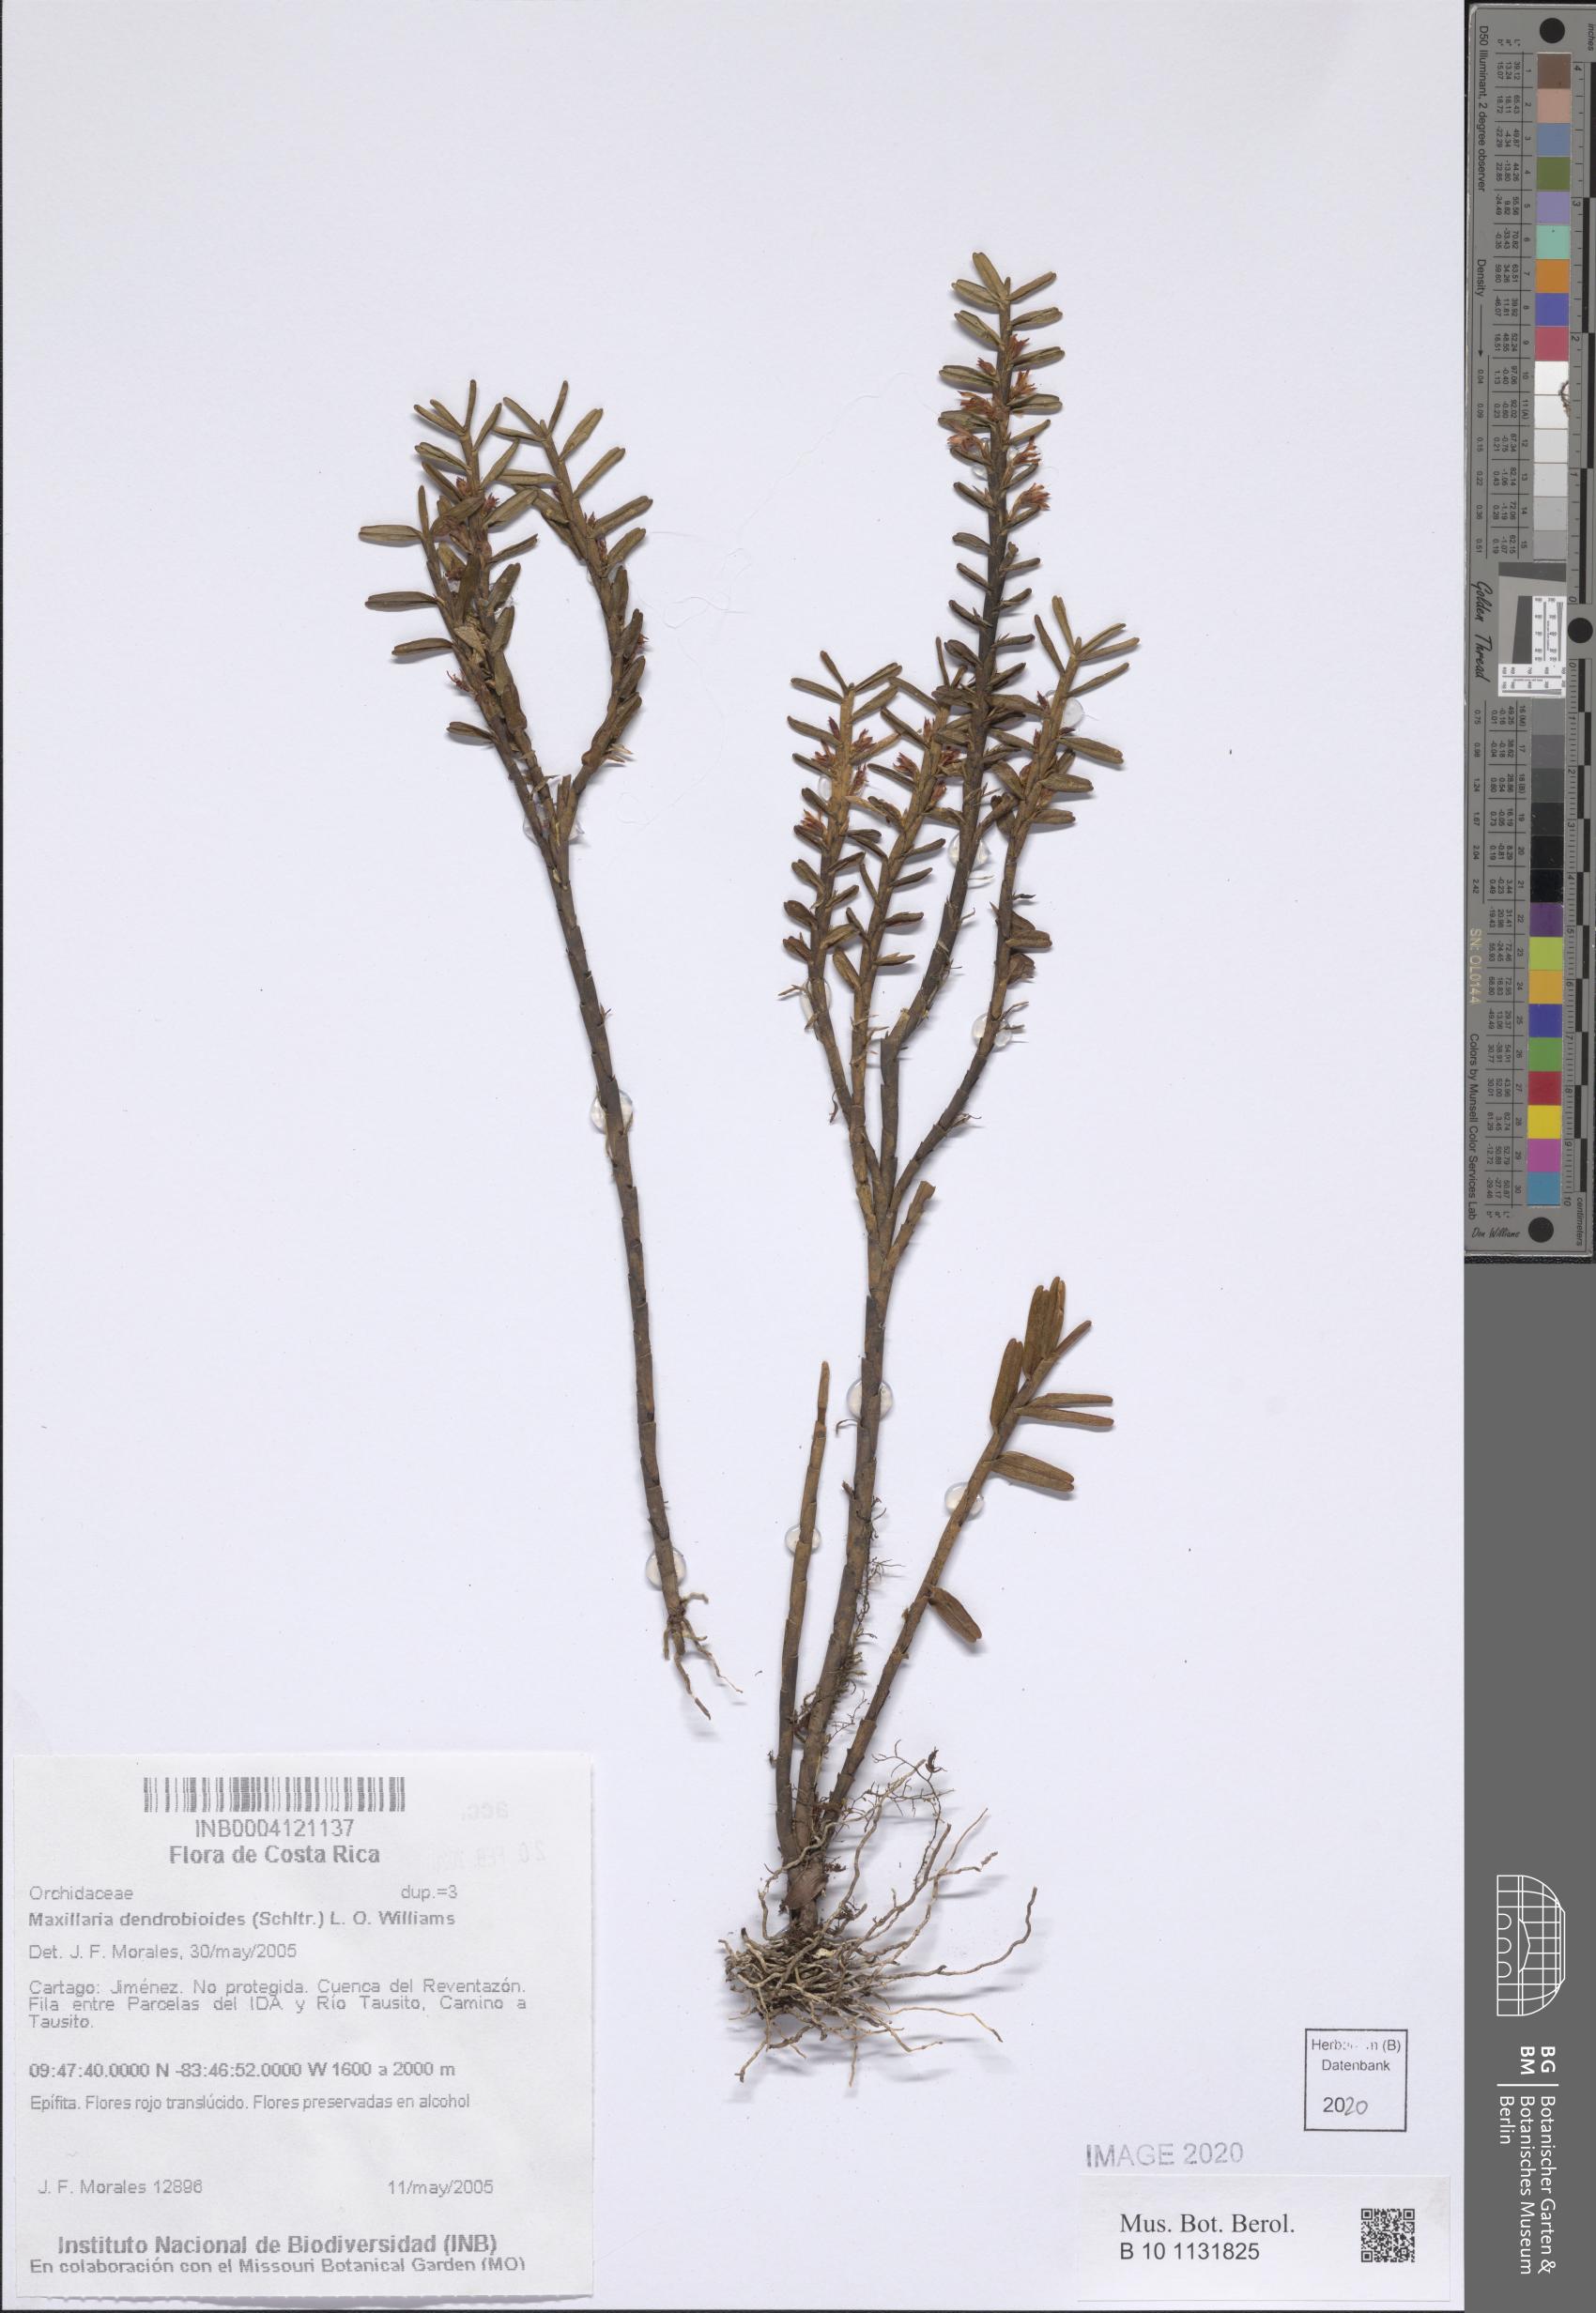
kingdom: Plantae
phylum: Tracheophyta
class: Liliopsida
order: Asparagales
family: Orchidaceae
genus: Maxillaria
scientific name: Maxillaria dendrobioides
